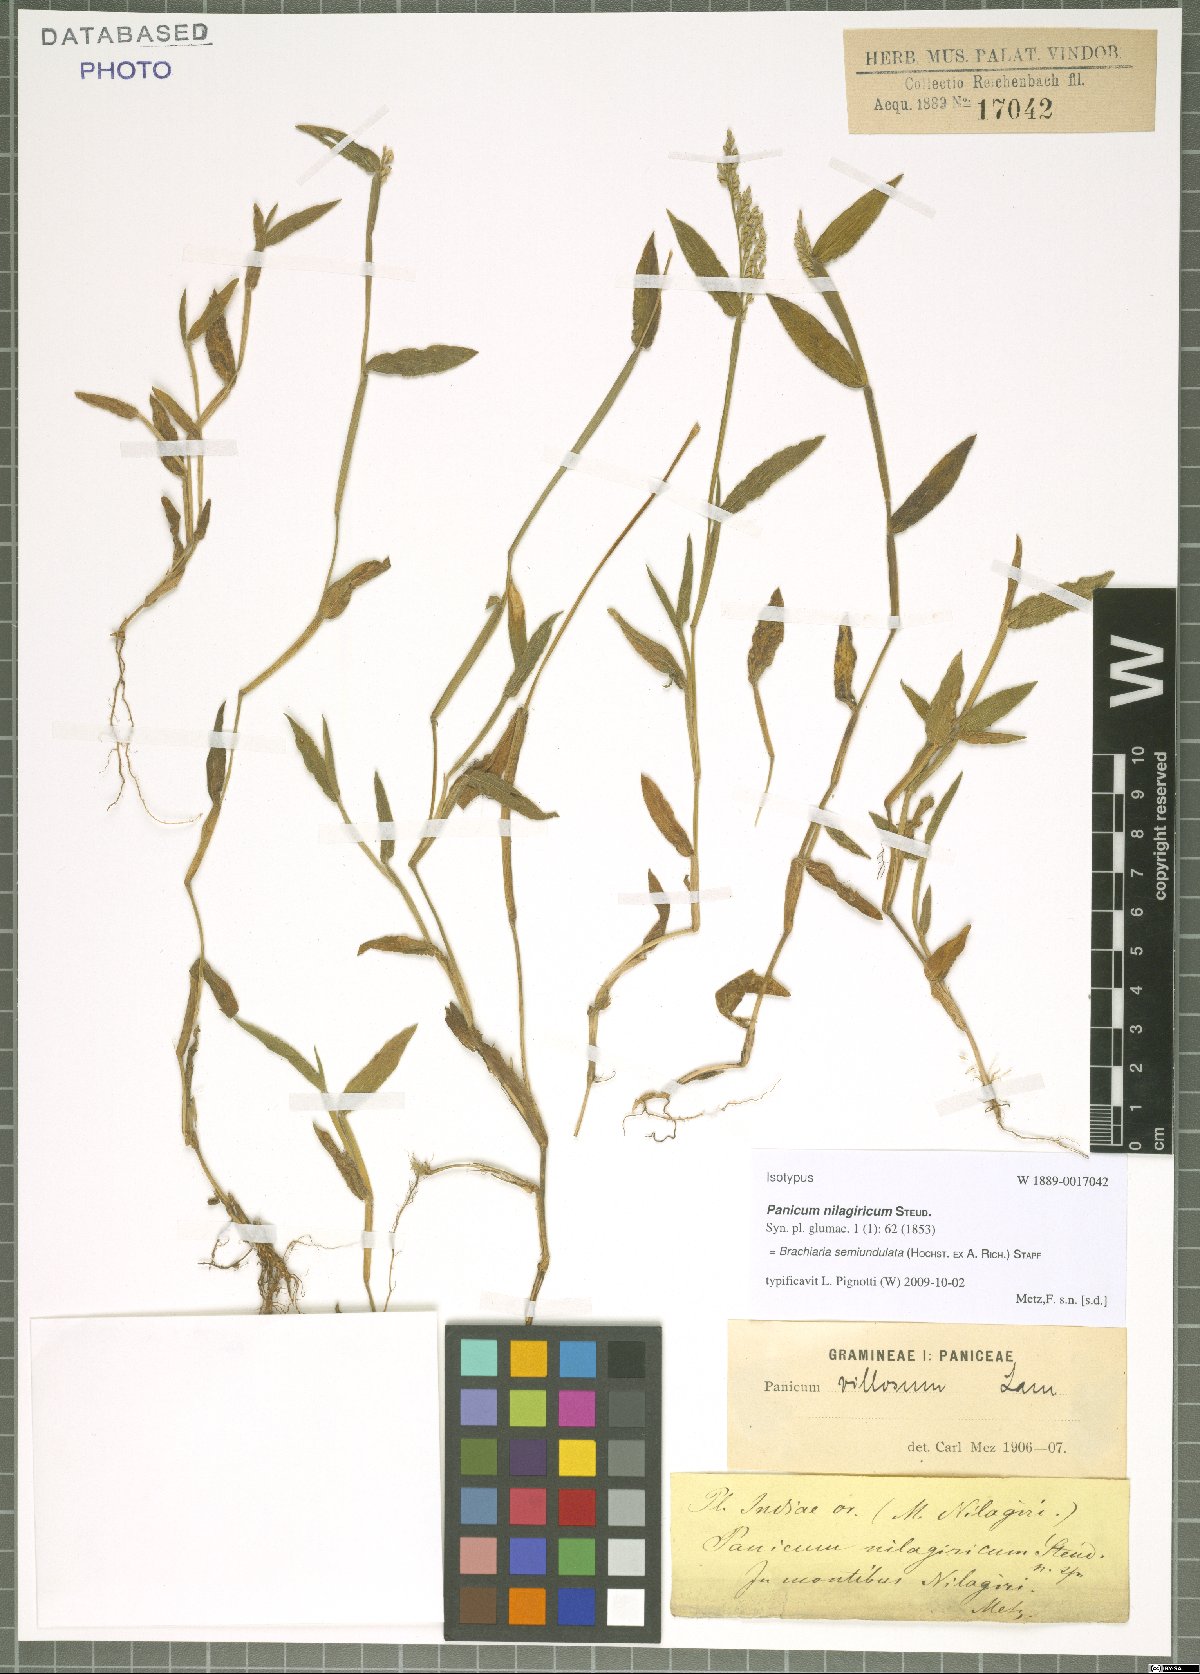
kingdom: Plantae
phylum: Tracheophyta
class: Liliopsida
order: Poales
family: Poaceae
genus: Urochloa
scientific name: Urochloa semiundulata
